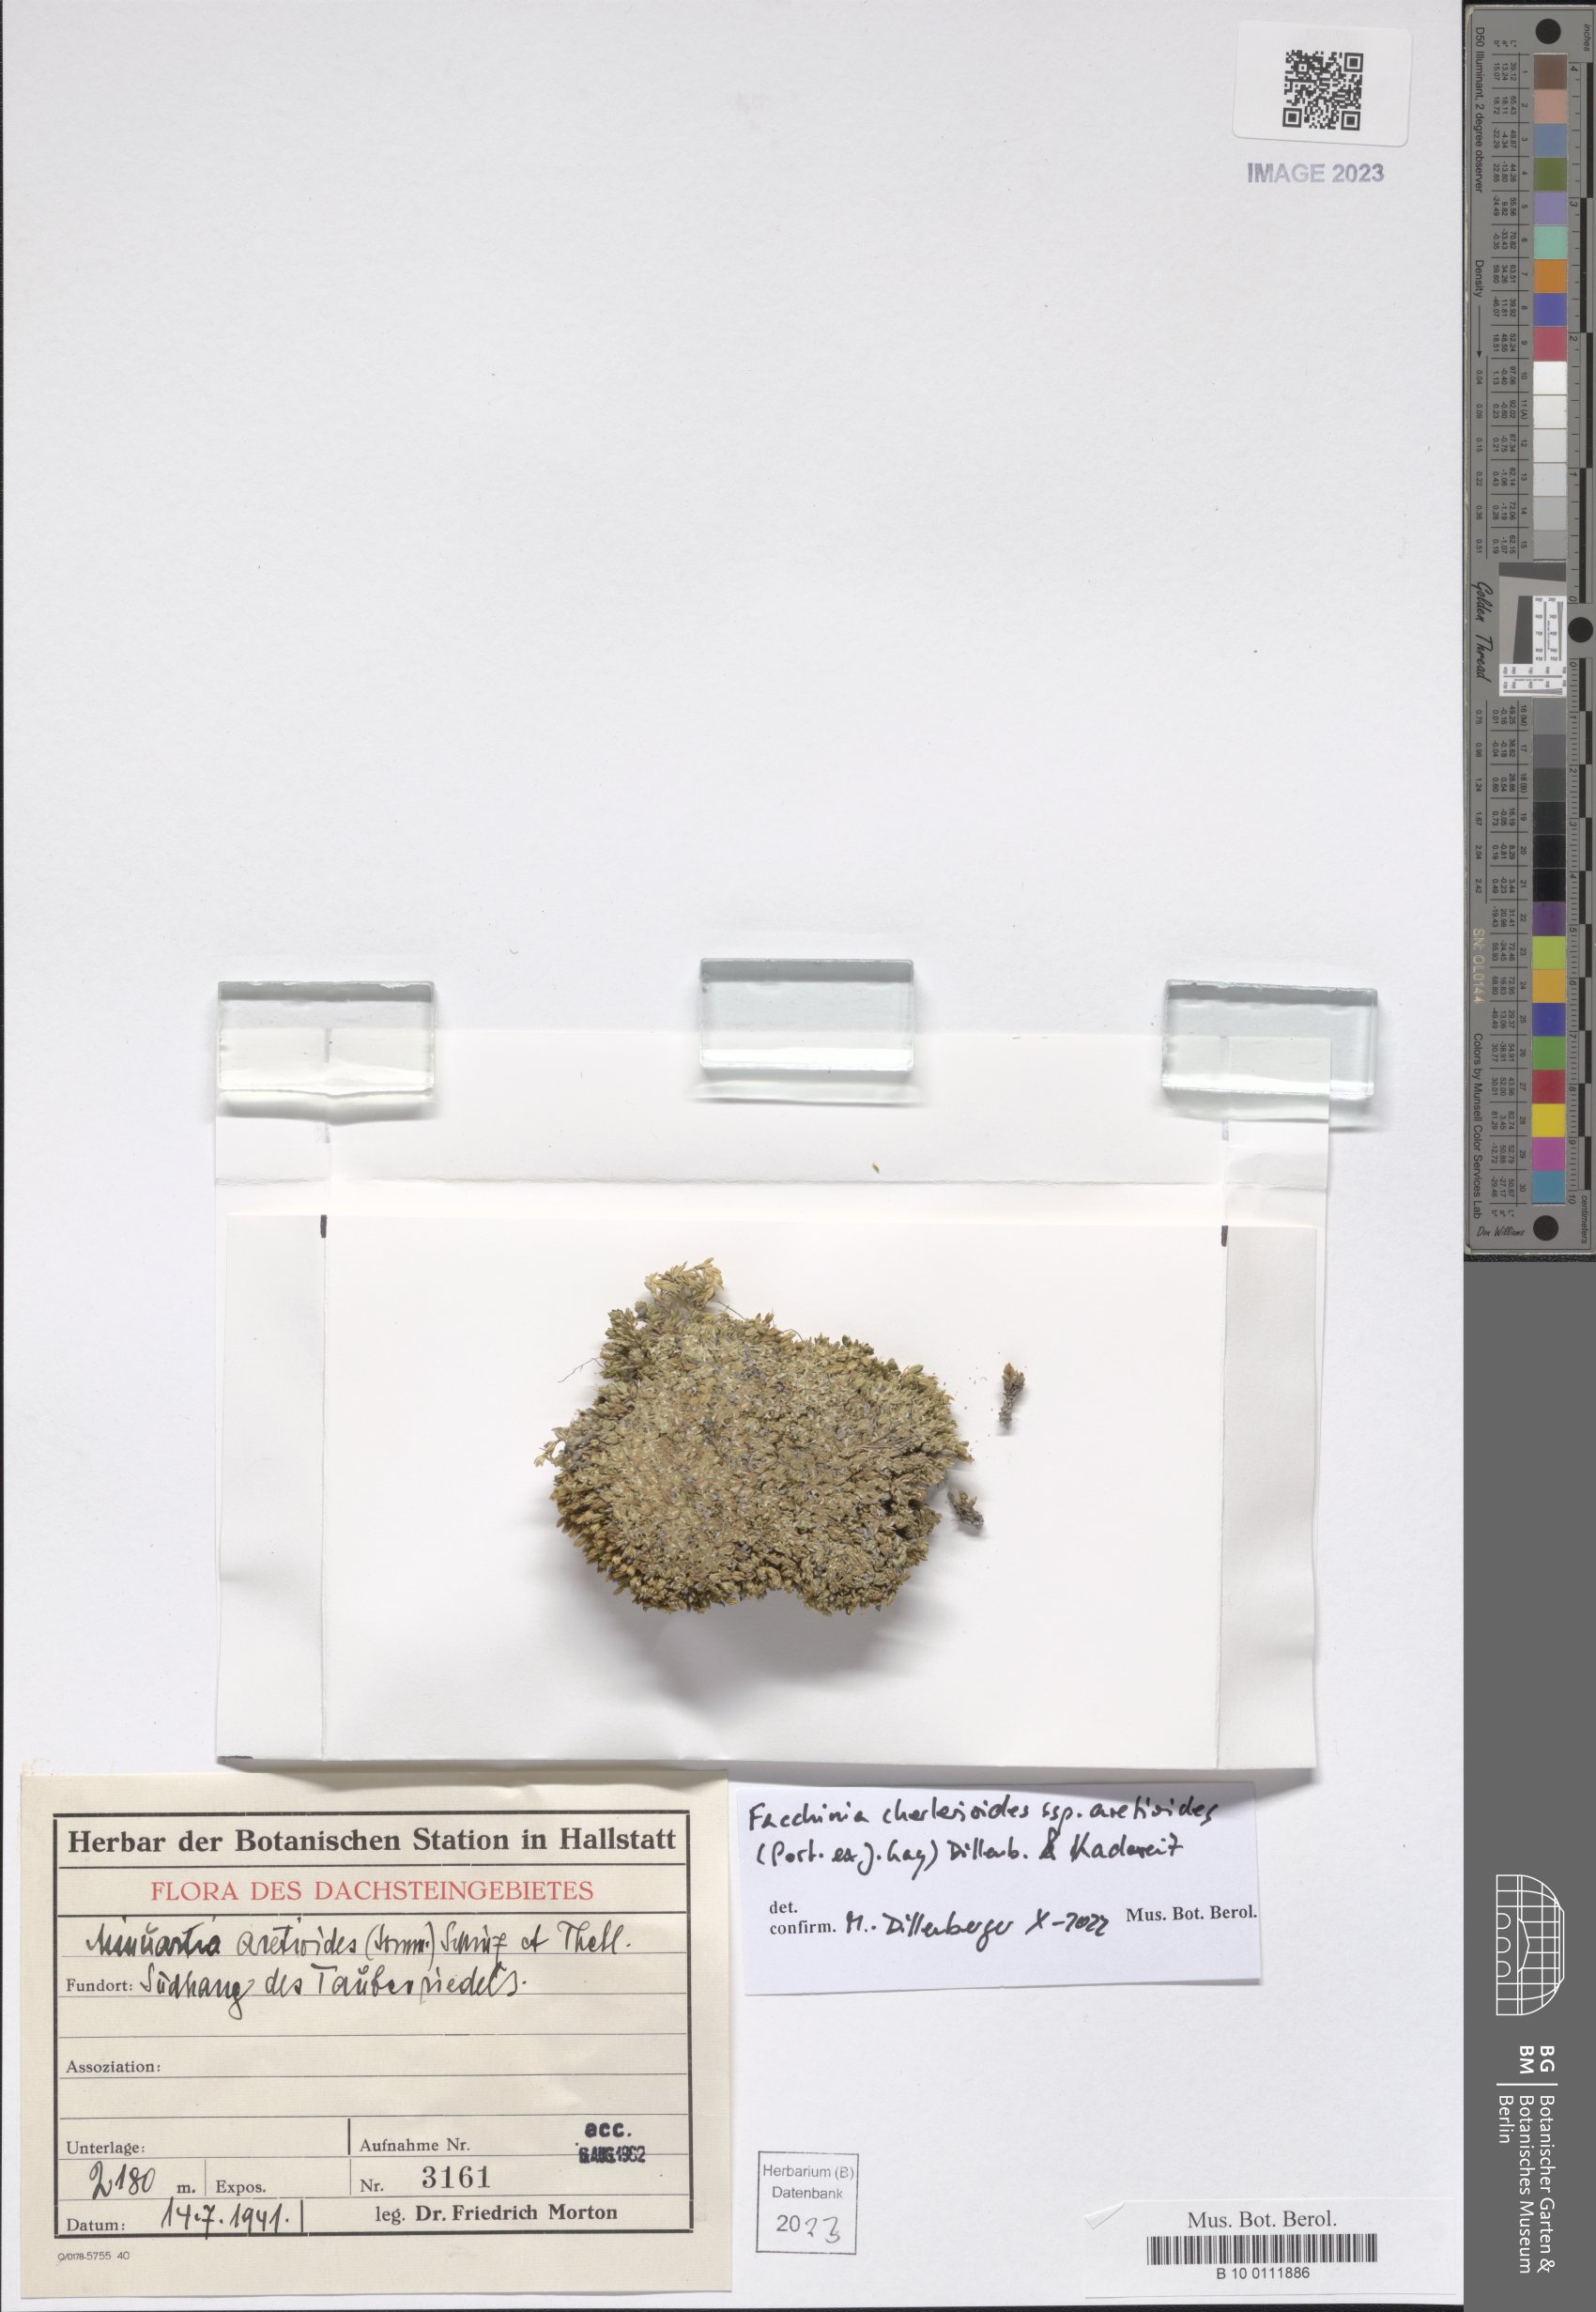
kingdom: Plantae
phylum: Tracheophyta
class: Magnoliopsida
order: Caryophyllales
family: Caryophyllaceae
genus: Facchinia
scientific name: Facchinia cherlerioides
